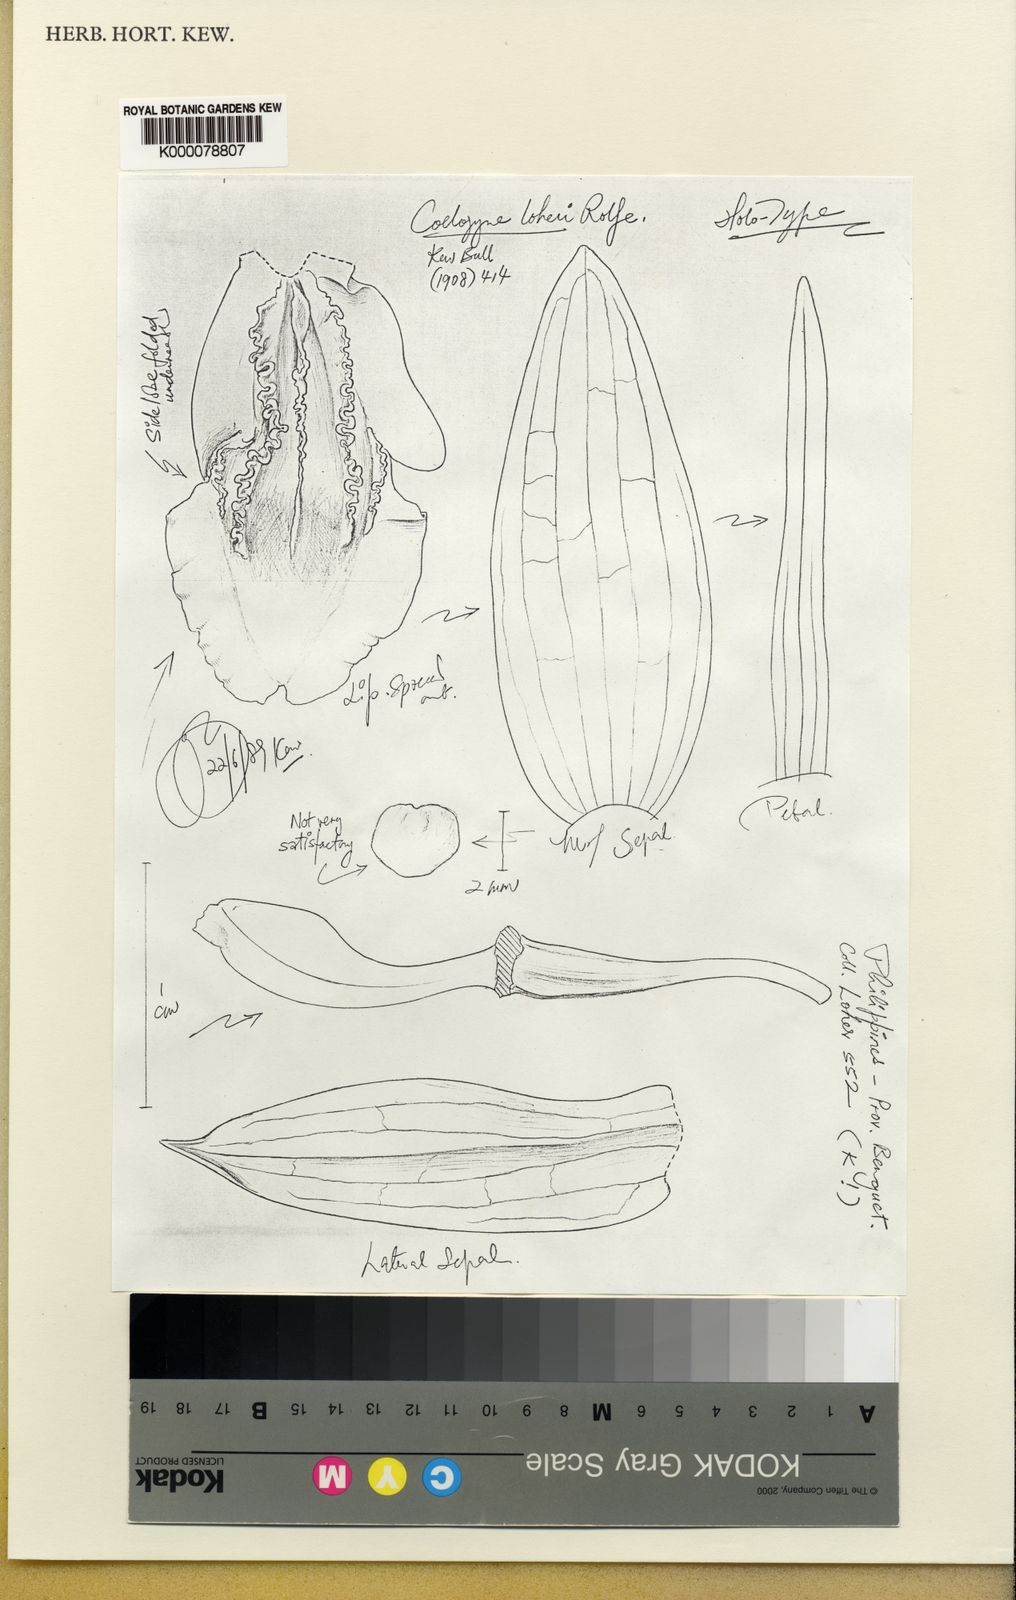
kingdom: Plantae
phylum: Tracheophyta
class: Liliopsida
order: Asparagales
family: Orchidaceae
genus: Coelogyne
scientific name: Coelogyne loheri
